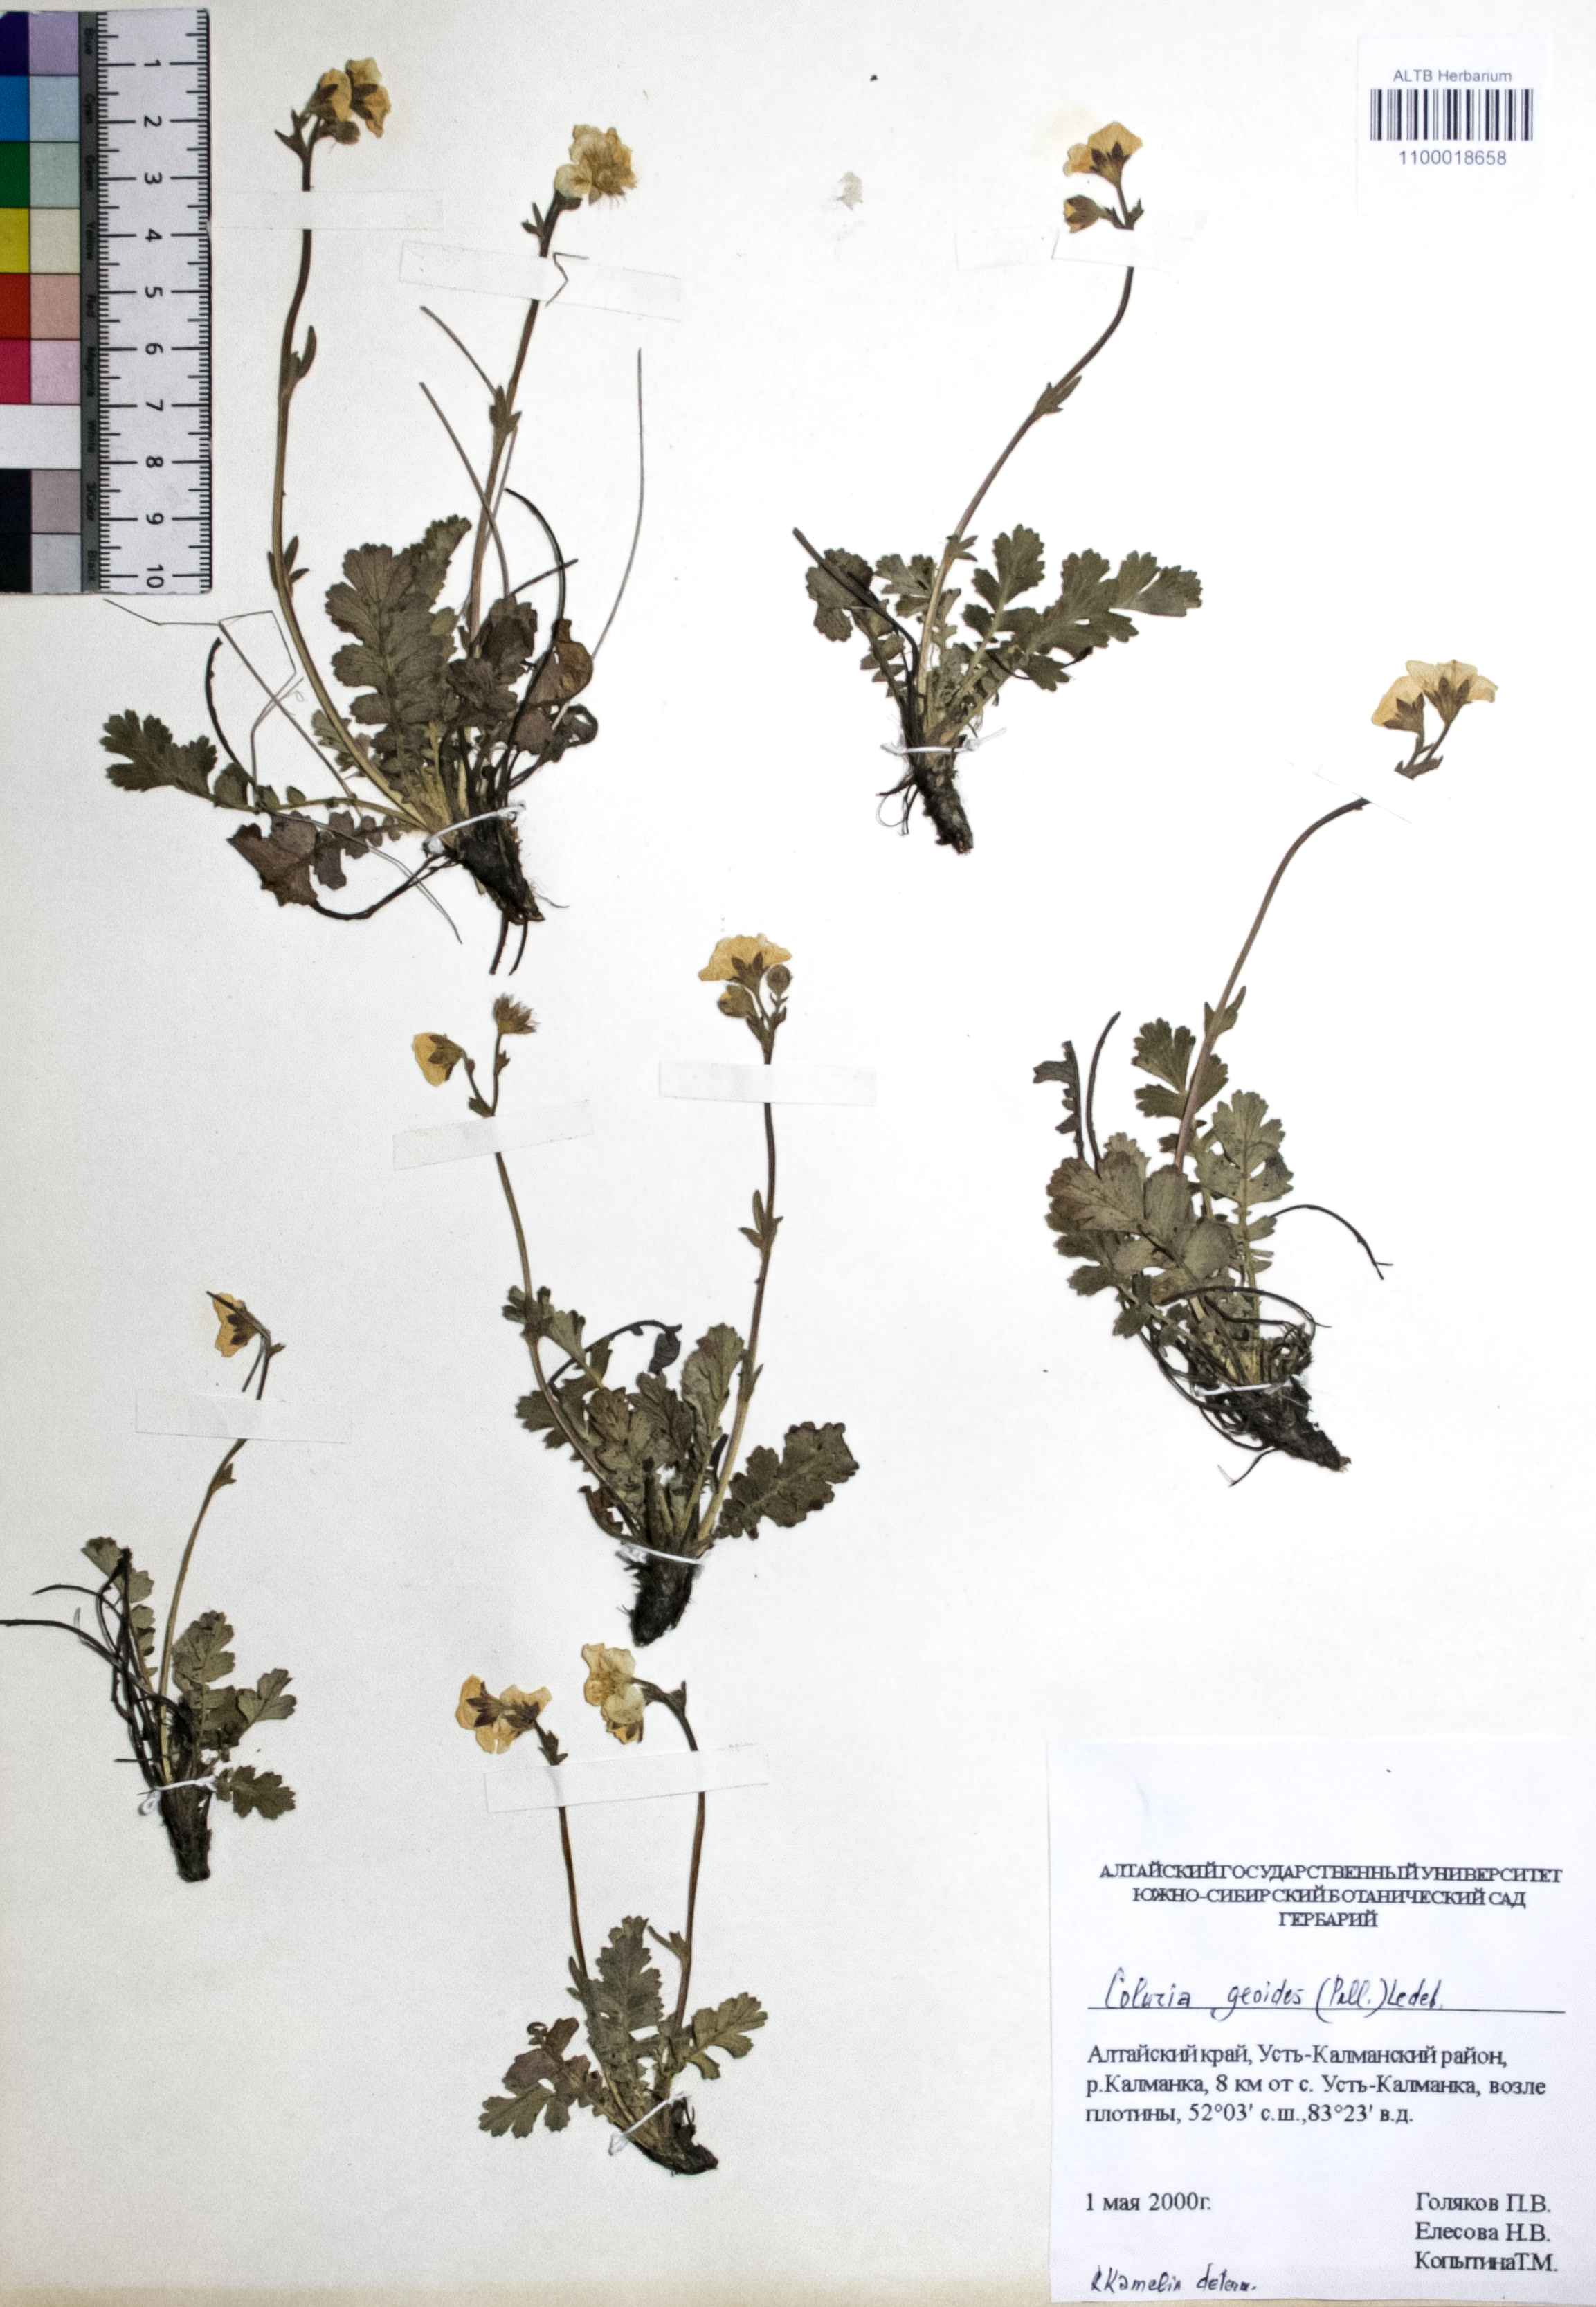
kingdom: Plantae
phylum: Tracheophyta
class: Magnoliopsida
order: Rosales
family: Rosaceae
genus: Geum
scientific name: Geum geoides
